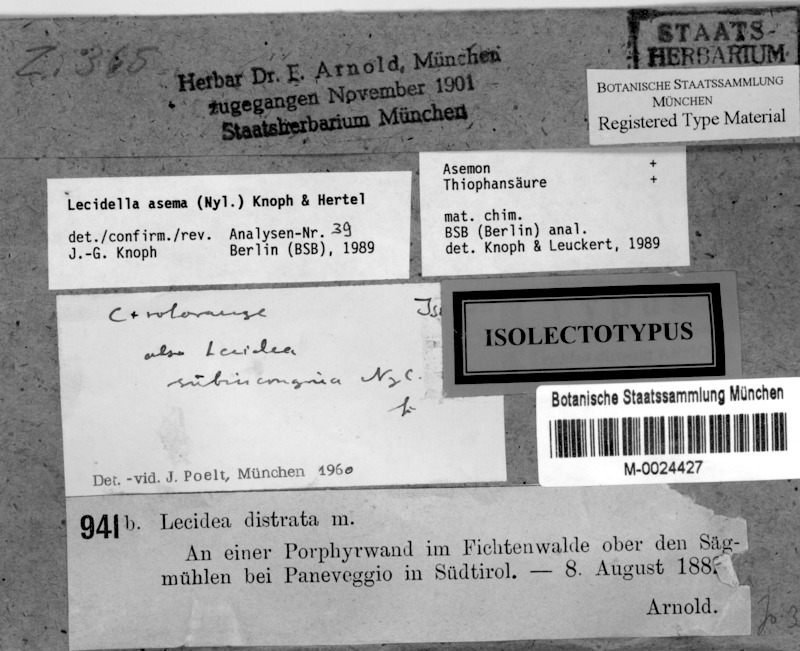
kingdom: Fungi
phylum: Ascomycota
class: Lecanoromycetes
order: Lecanorales
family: Lecanoraceae
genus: Lecidella
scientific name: Lecidella asema
